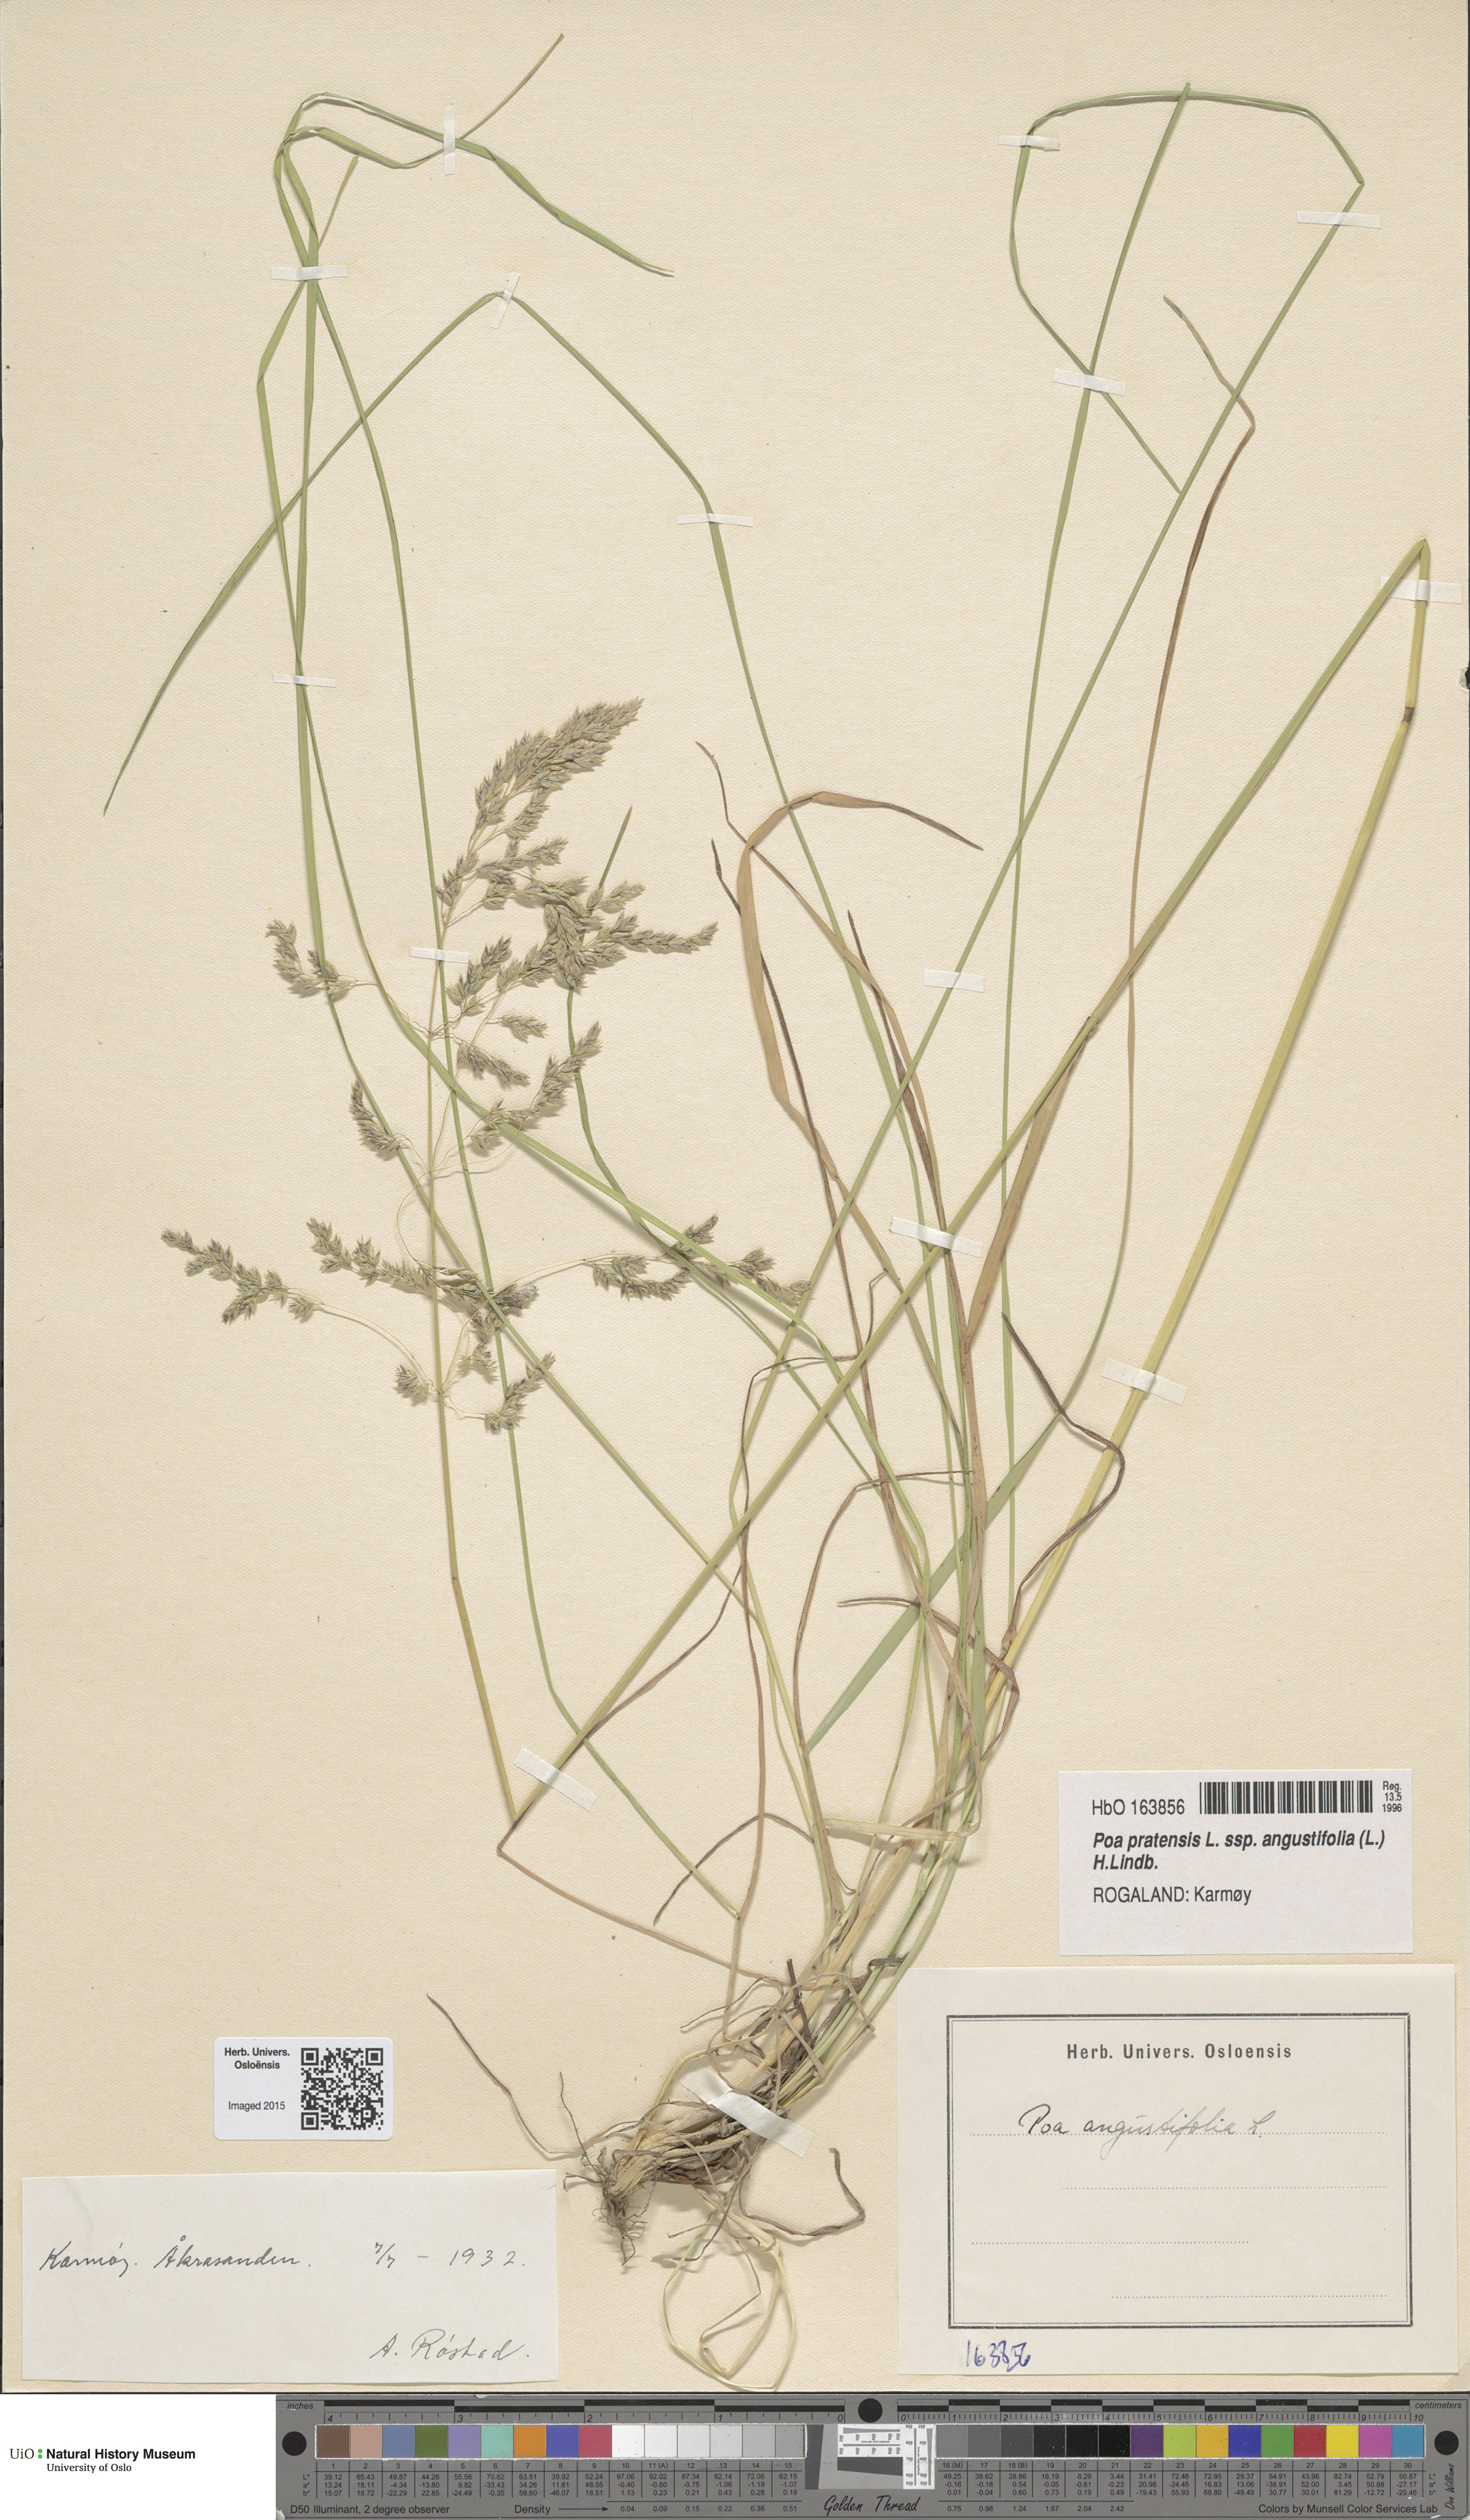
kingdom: Plantae
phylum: Tracheophyta
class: Liliopsida
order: Poales
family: Poaceae
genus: Poa
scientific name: Poa angustifolia
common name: Narrow-leaved meadow-grass
